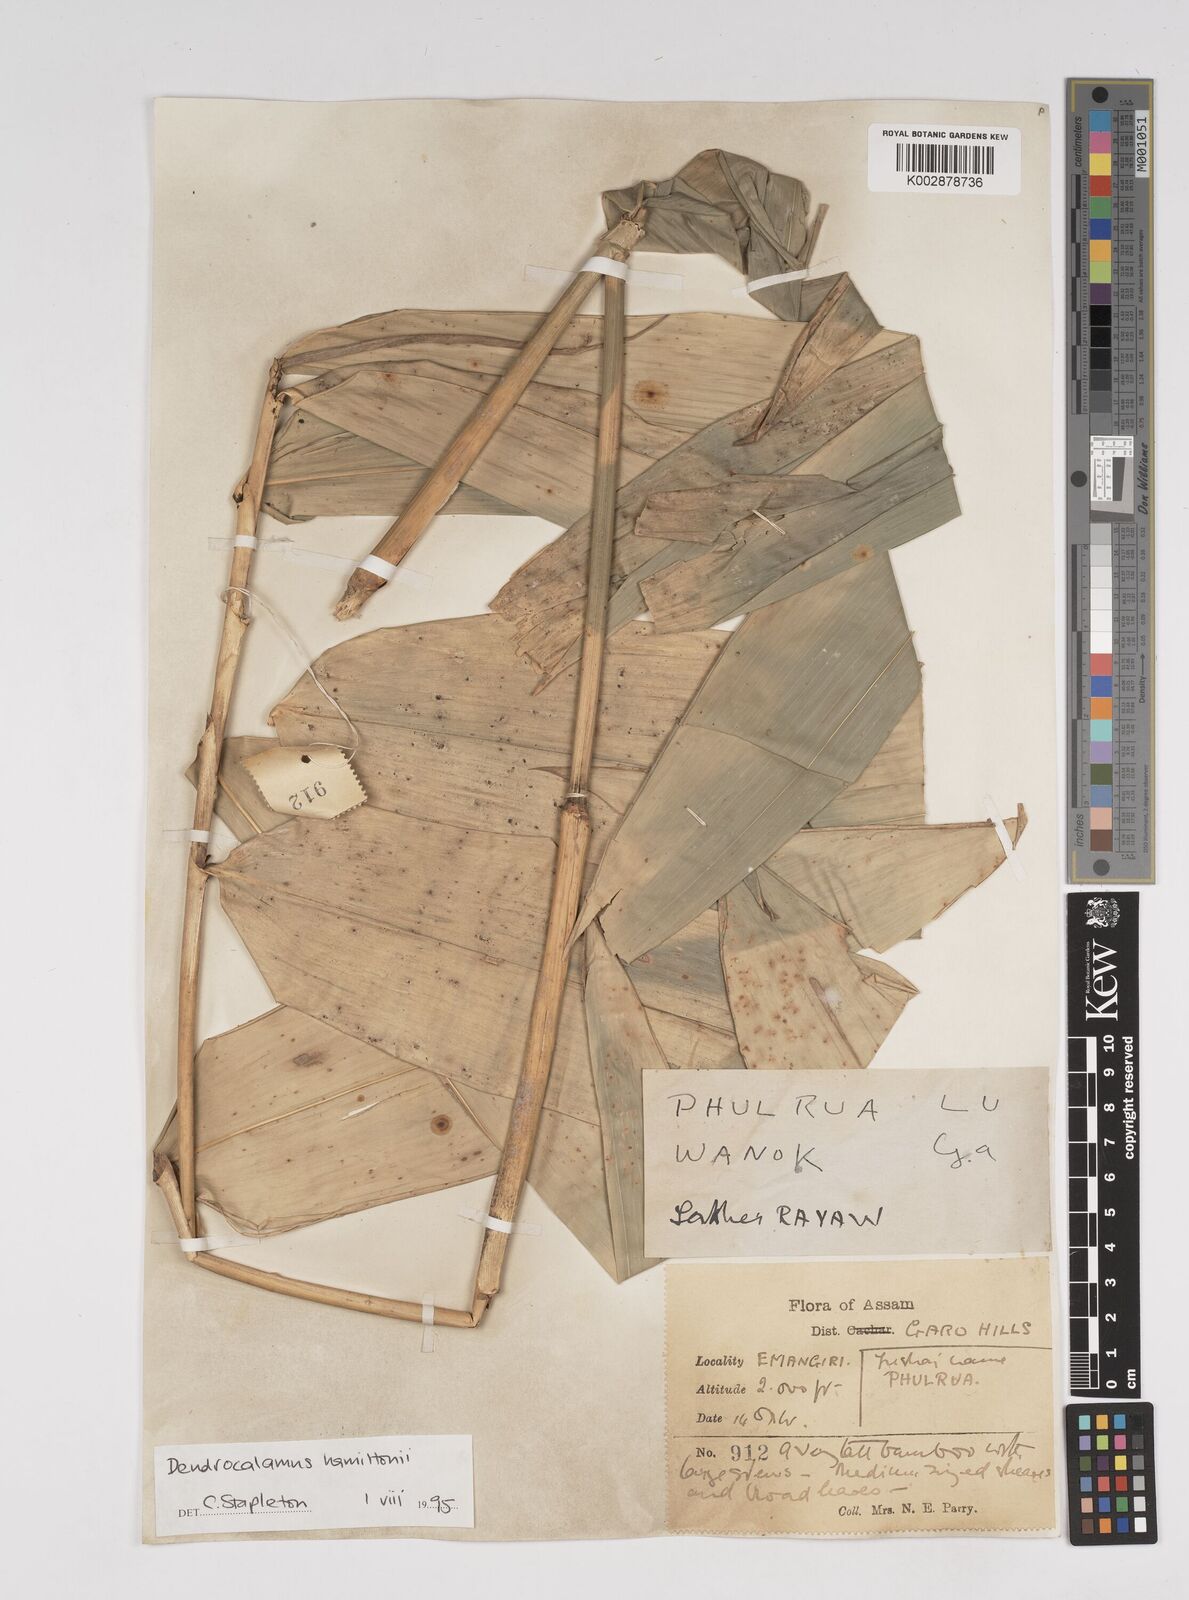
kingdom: Plantae
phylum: Tracheophyta
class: Liliopsida
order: Poales
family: Poaceae
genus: Dendrocalamus
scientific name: Dendrocalamus hamiltonii
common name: Tama bamboo
